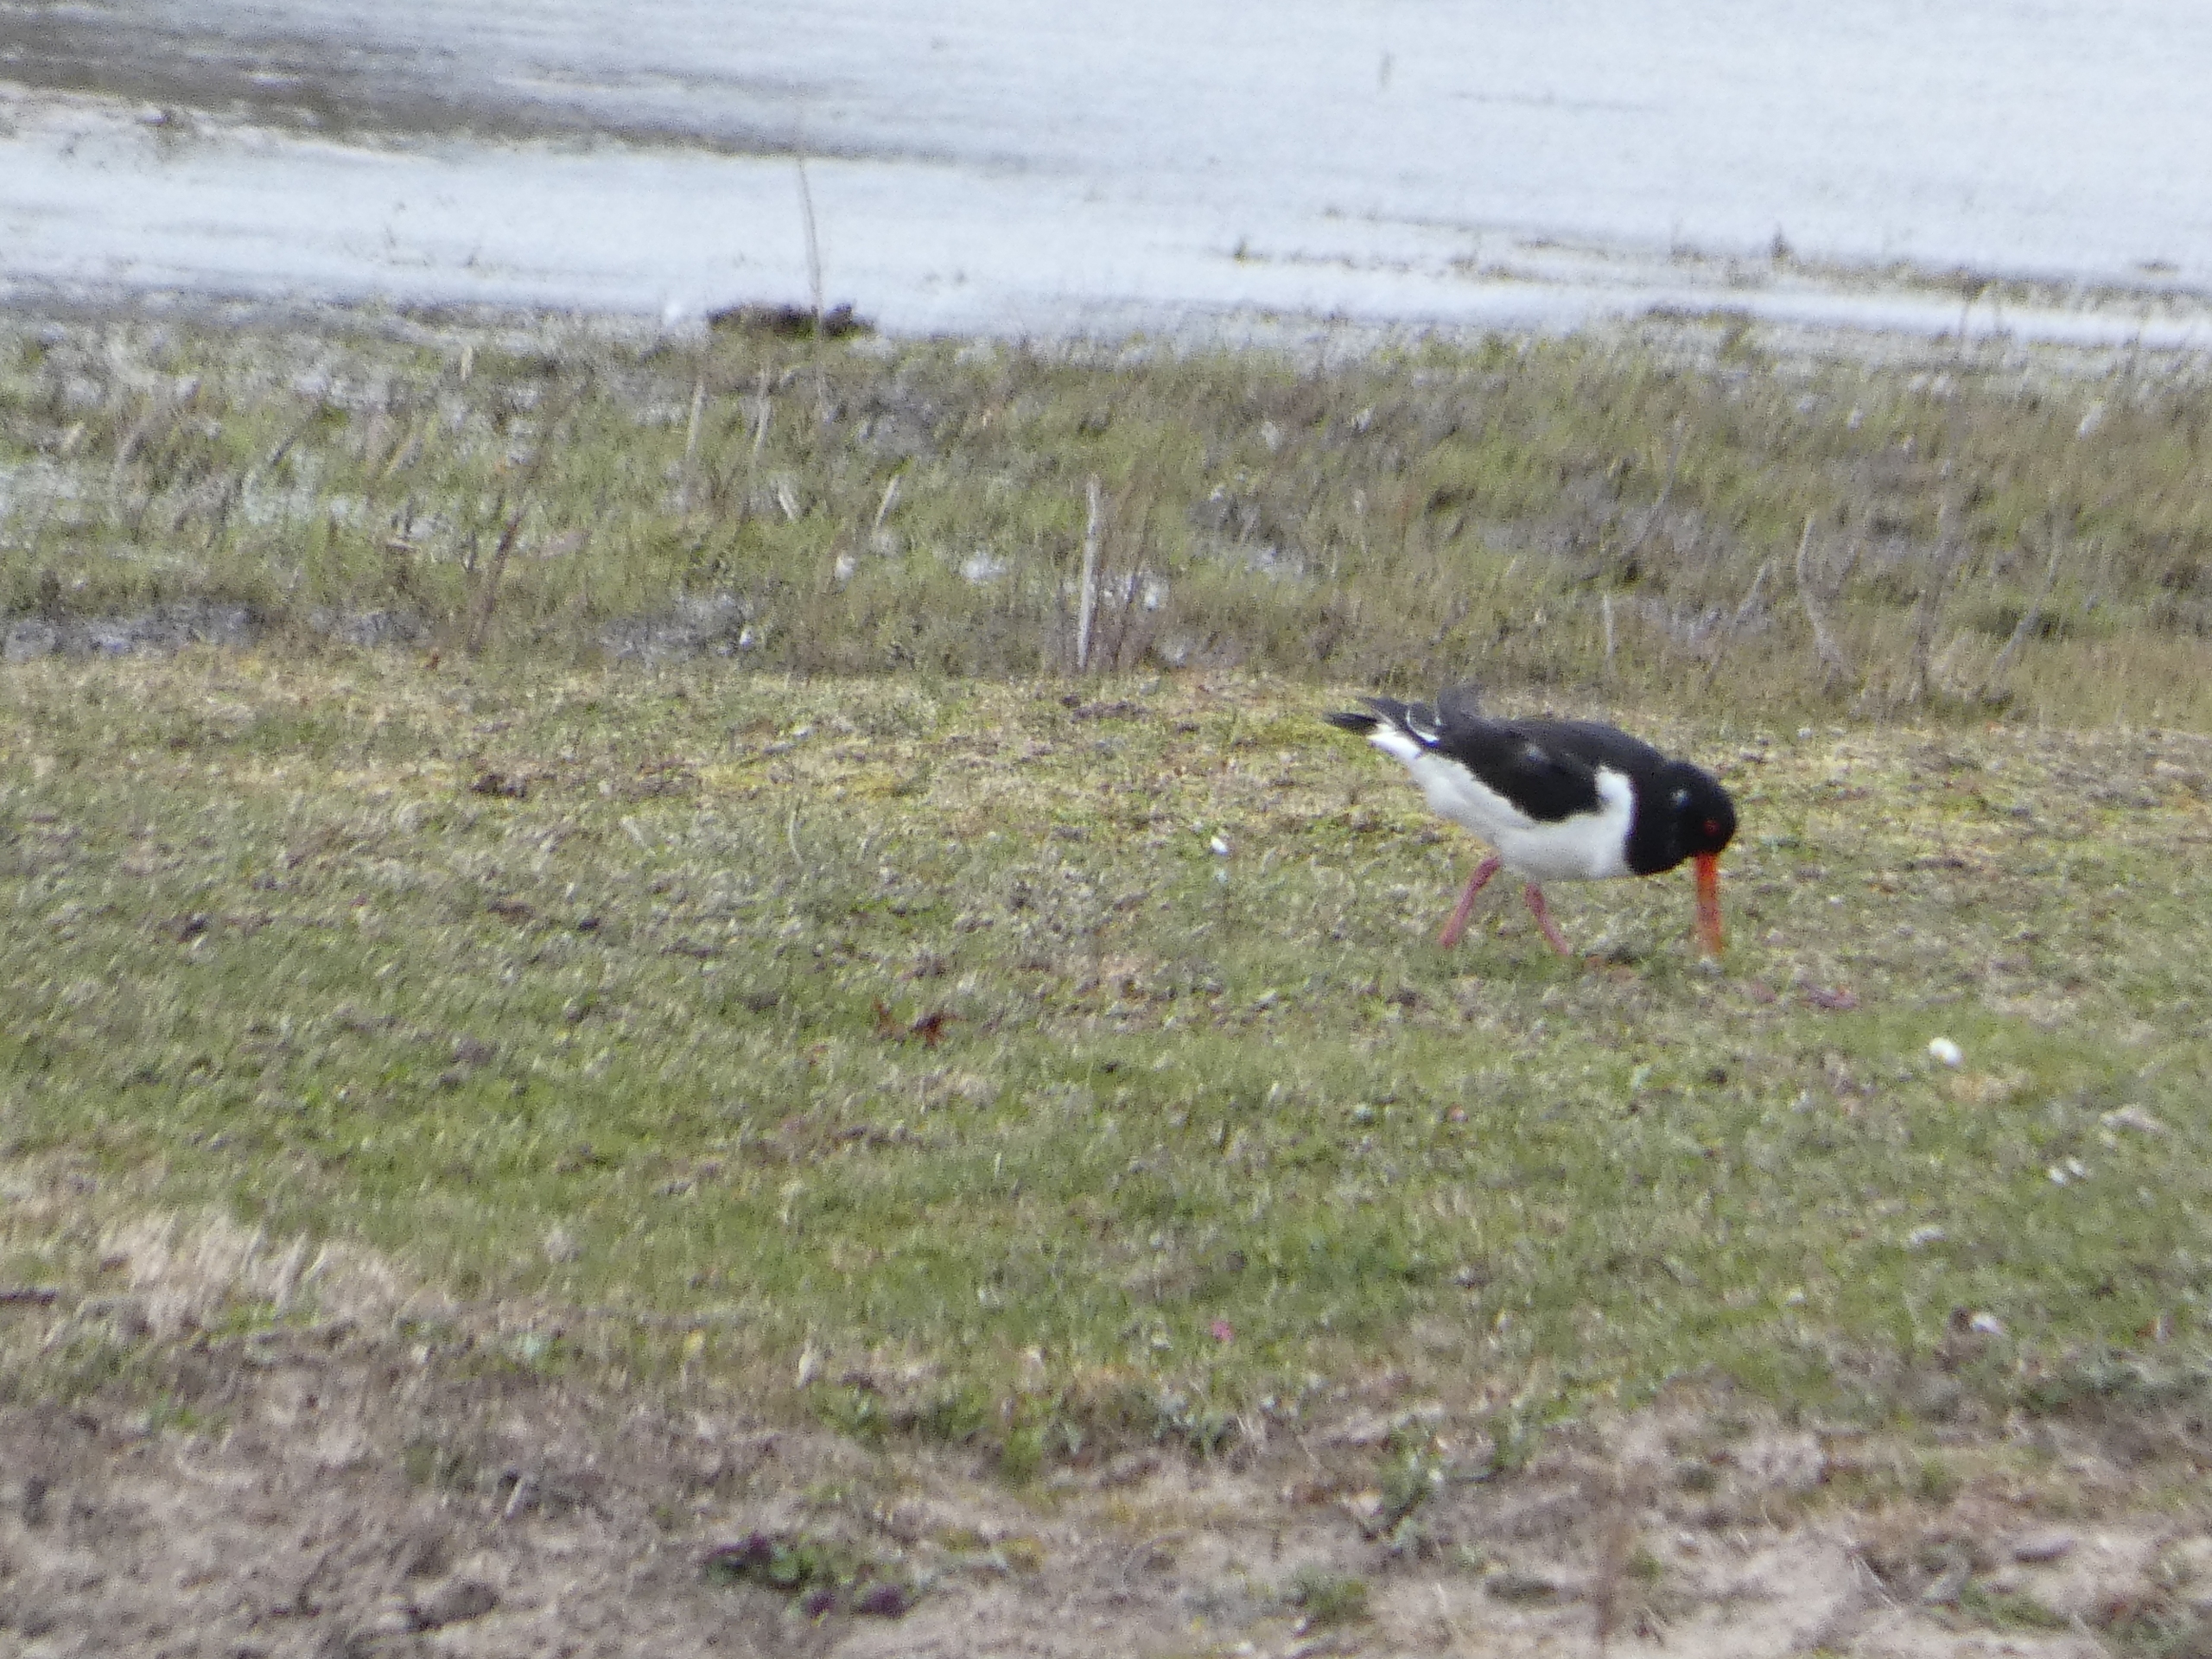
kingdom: Animalia
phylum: Chordata
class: Aves
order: Charadriiformes
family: Haematopodidae
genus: Haematopus
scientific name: Haematopus ostralegus
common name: Strandskade
